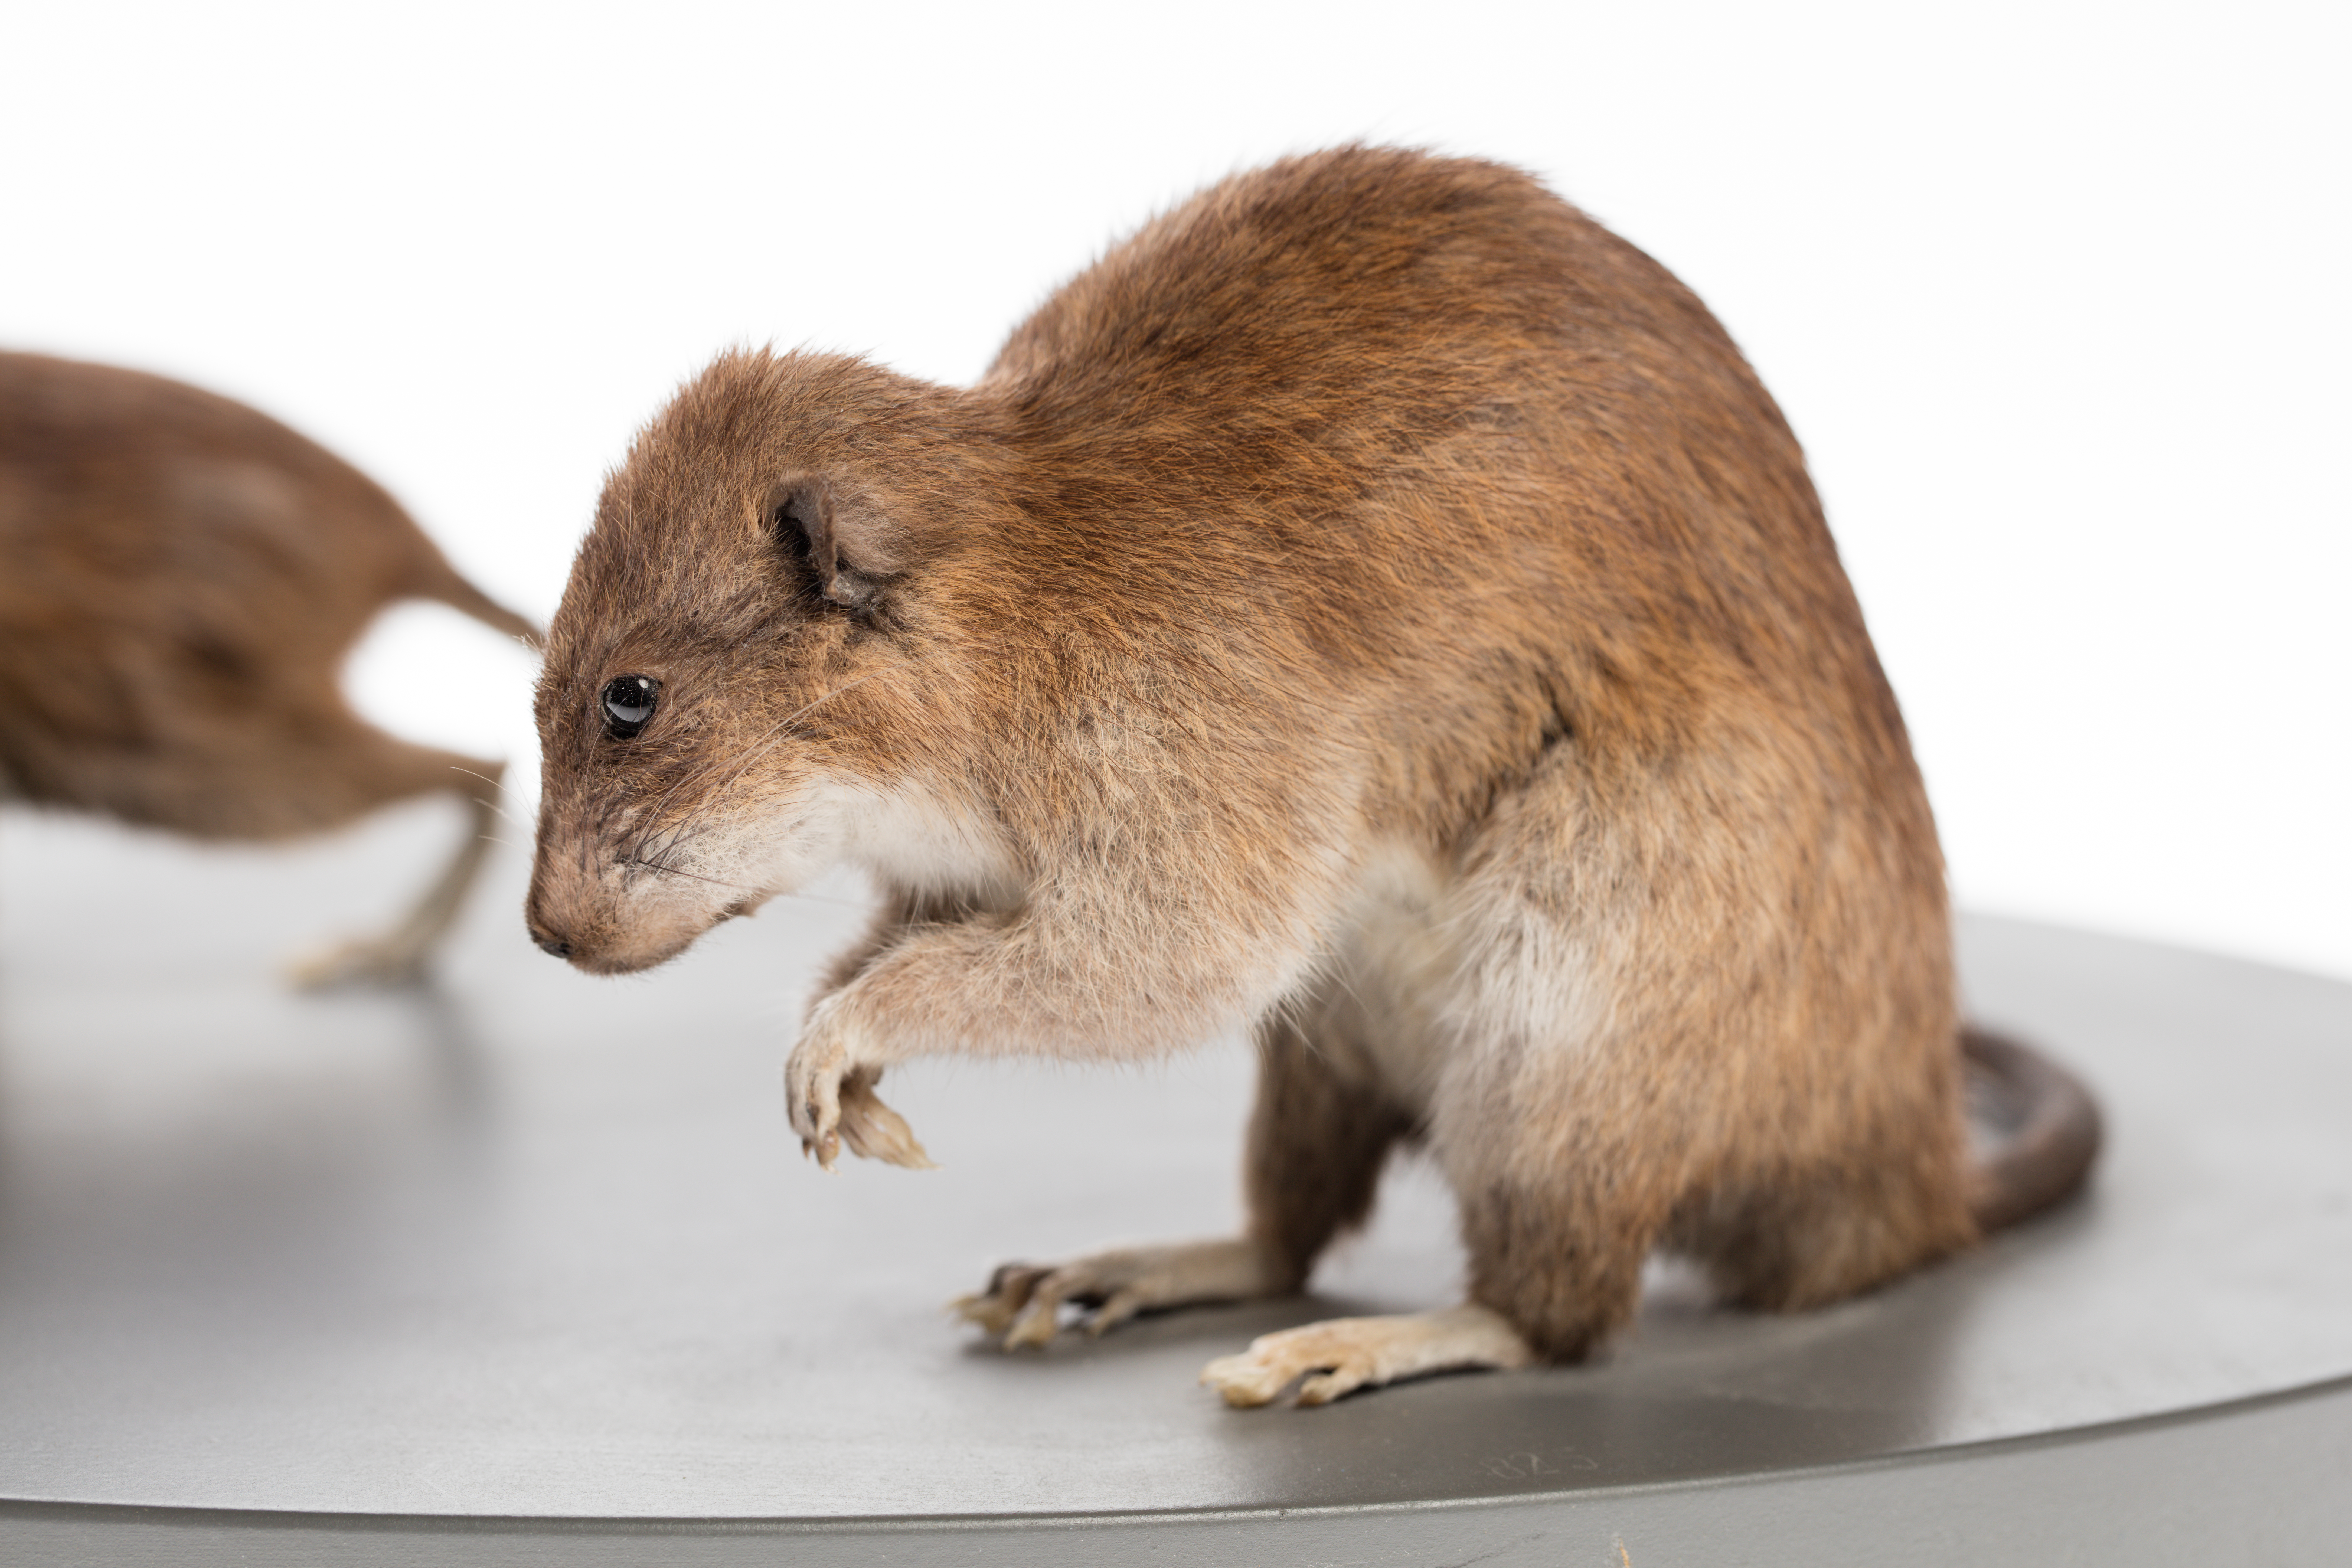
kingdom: Animalia
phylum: Chordata
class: Mammalia
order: Rodentia
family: Muridae
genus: Rattus
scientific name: Rattus norvegicus
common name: Brown rat
